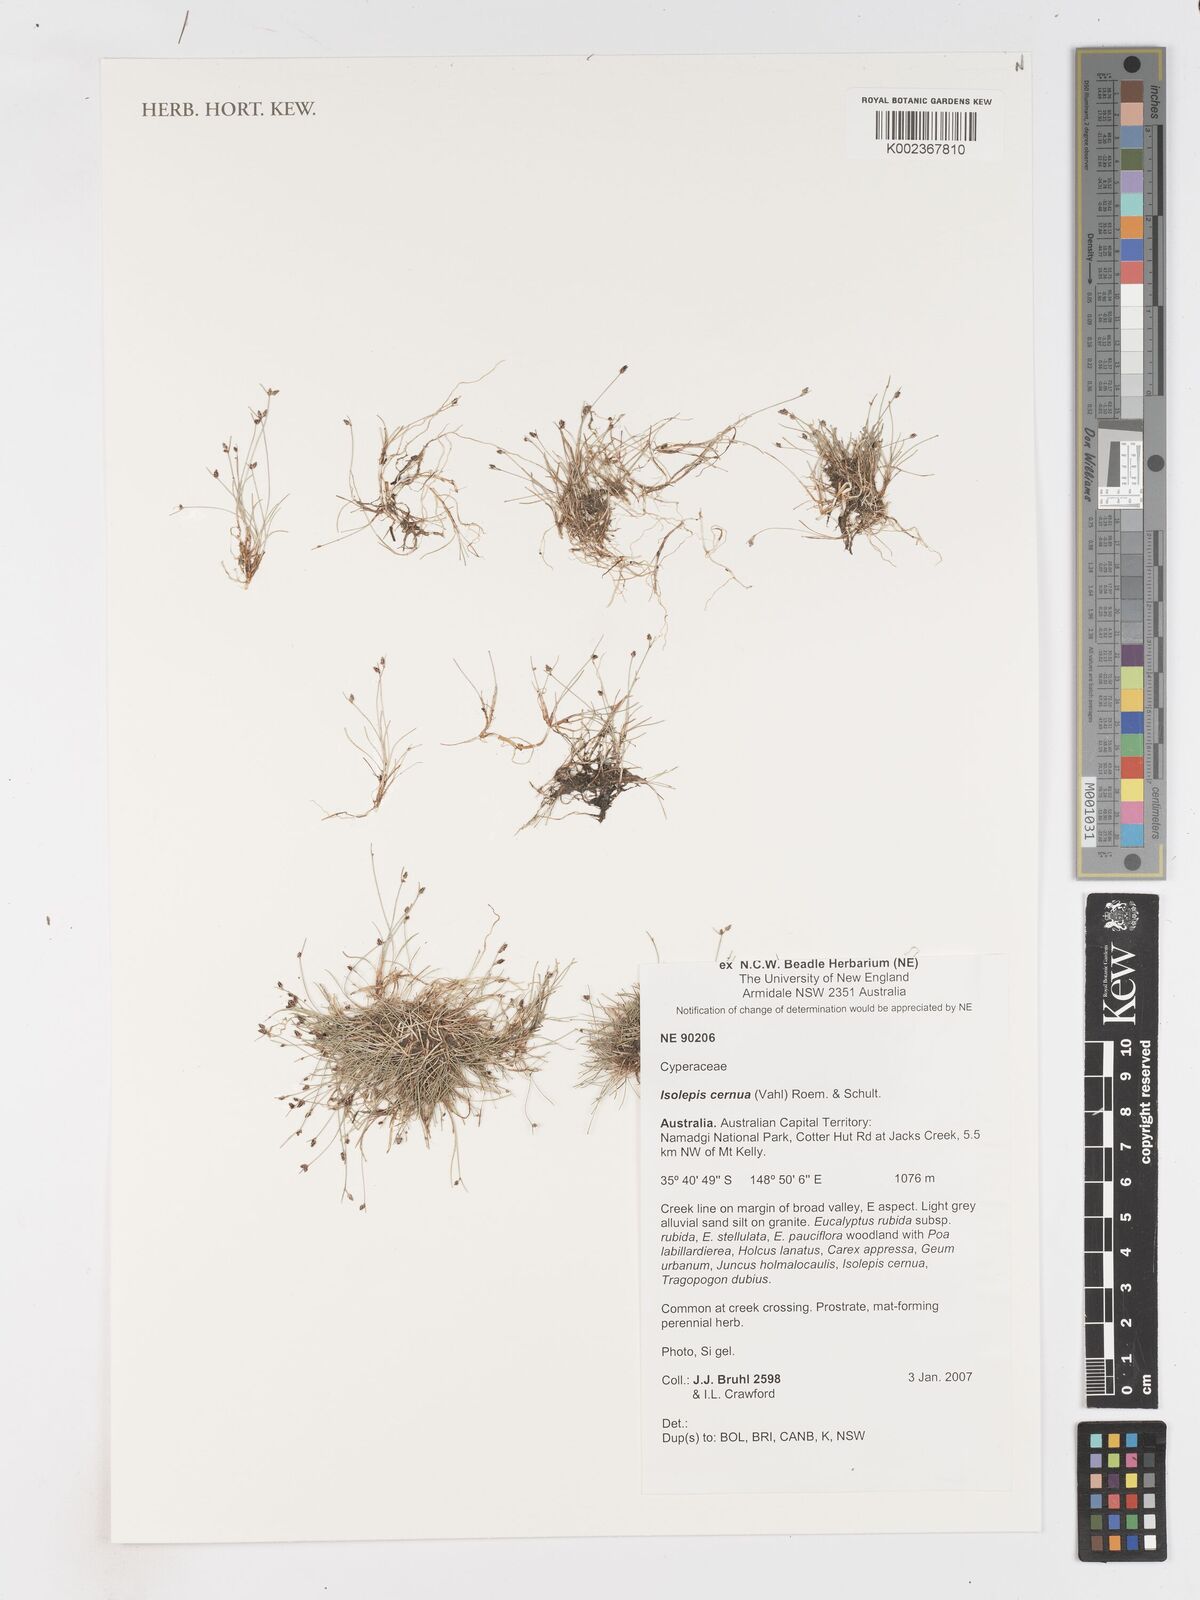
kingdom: Plantae
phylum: Tracheophyta
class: Liliopsida
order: Poales
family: Cyperaceae
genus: Isolepis
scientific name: Isolepis cernua
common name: Slender club-rush
